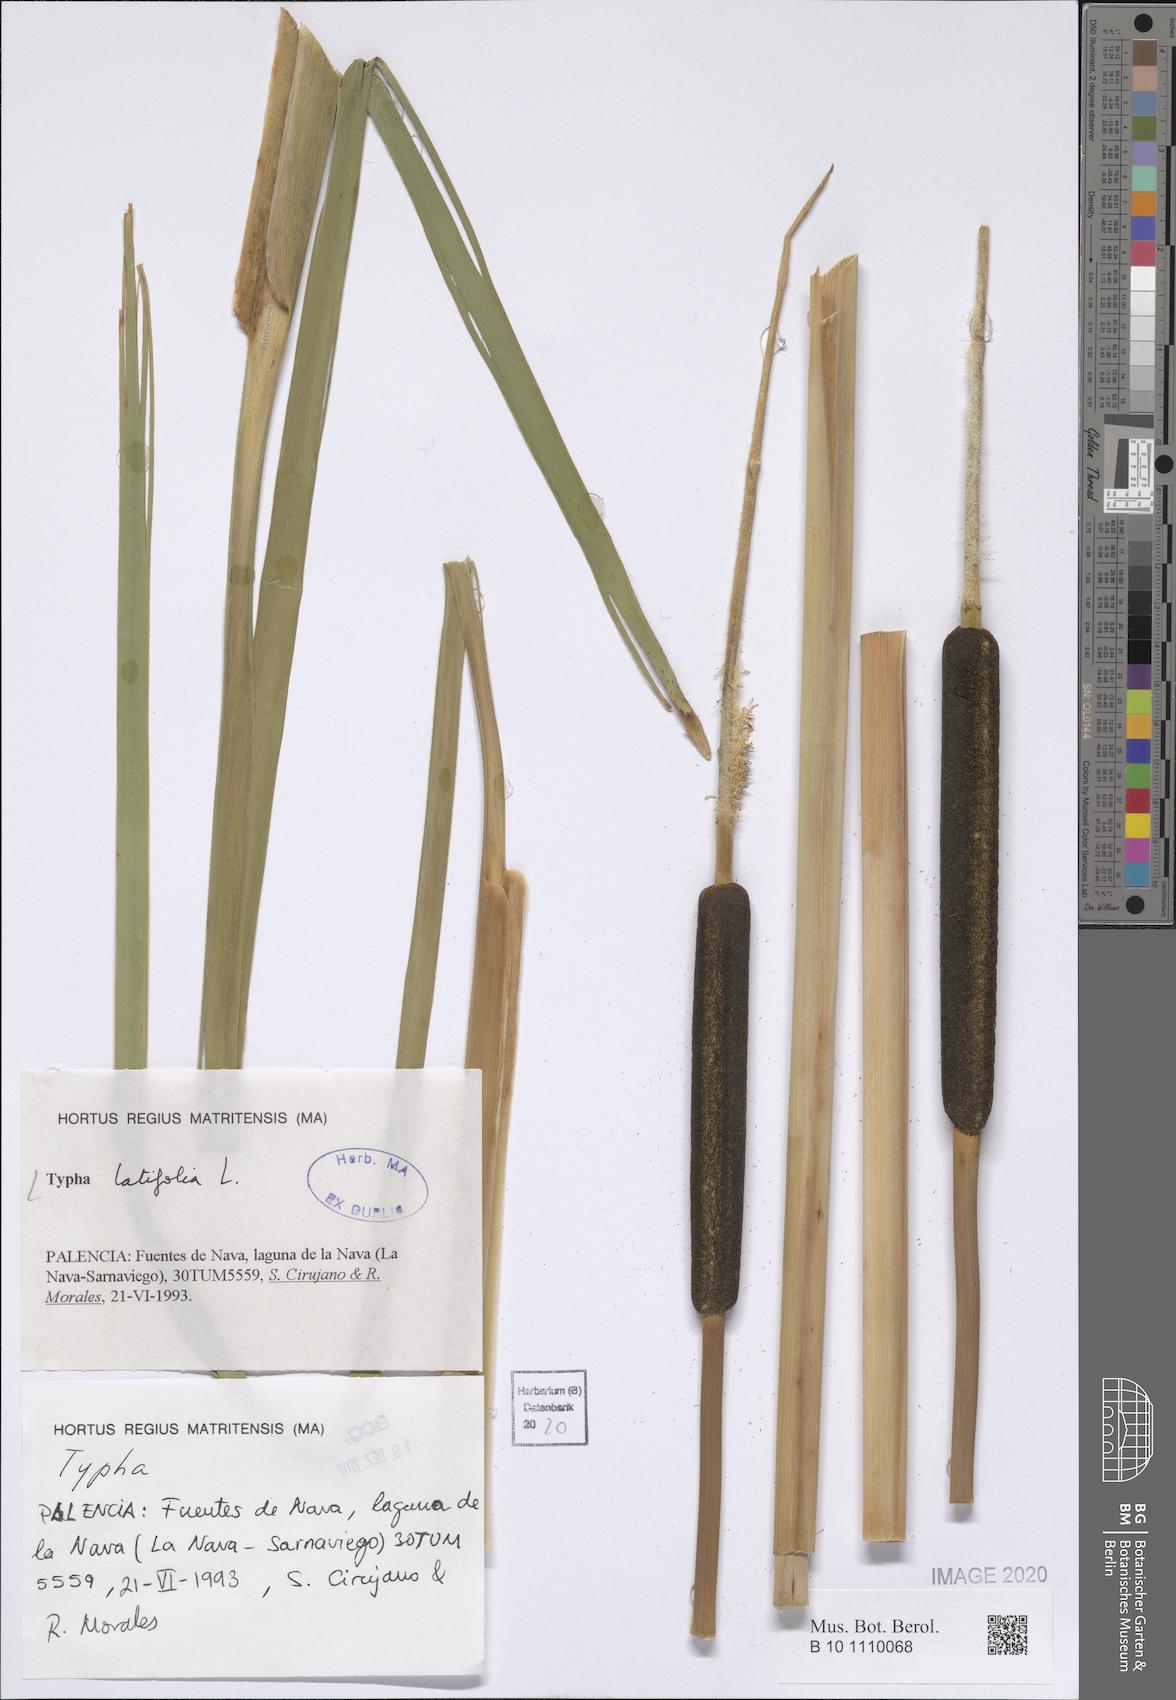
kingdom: Plantae
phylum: Tracheophyta
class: Liliopsida
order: Poales
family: Typhaceae
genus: Typha
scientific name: Typha latifolia
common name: Broadleaf cattail
